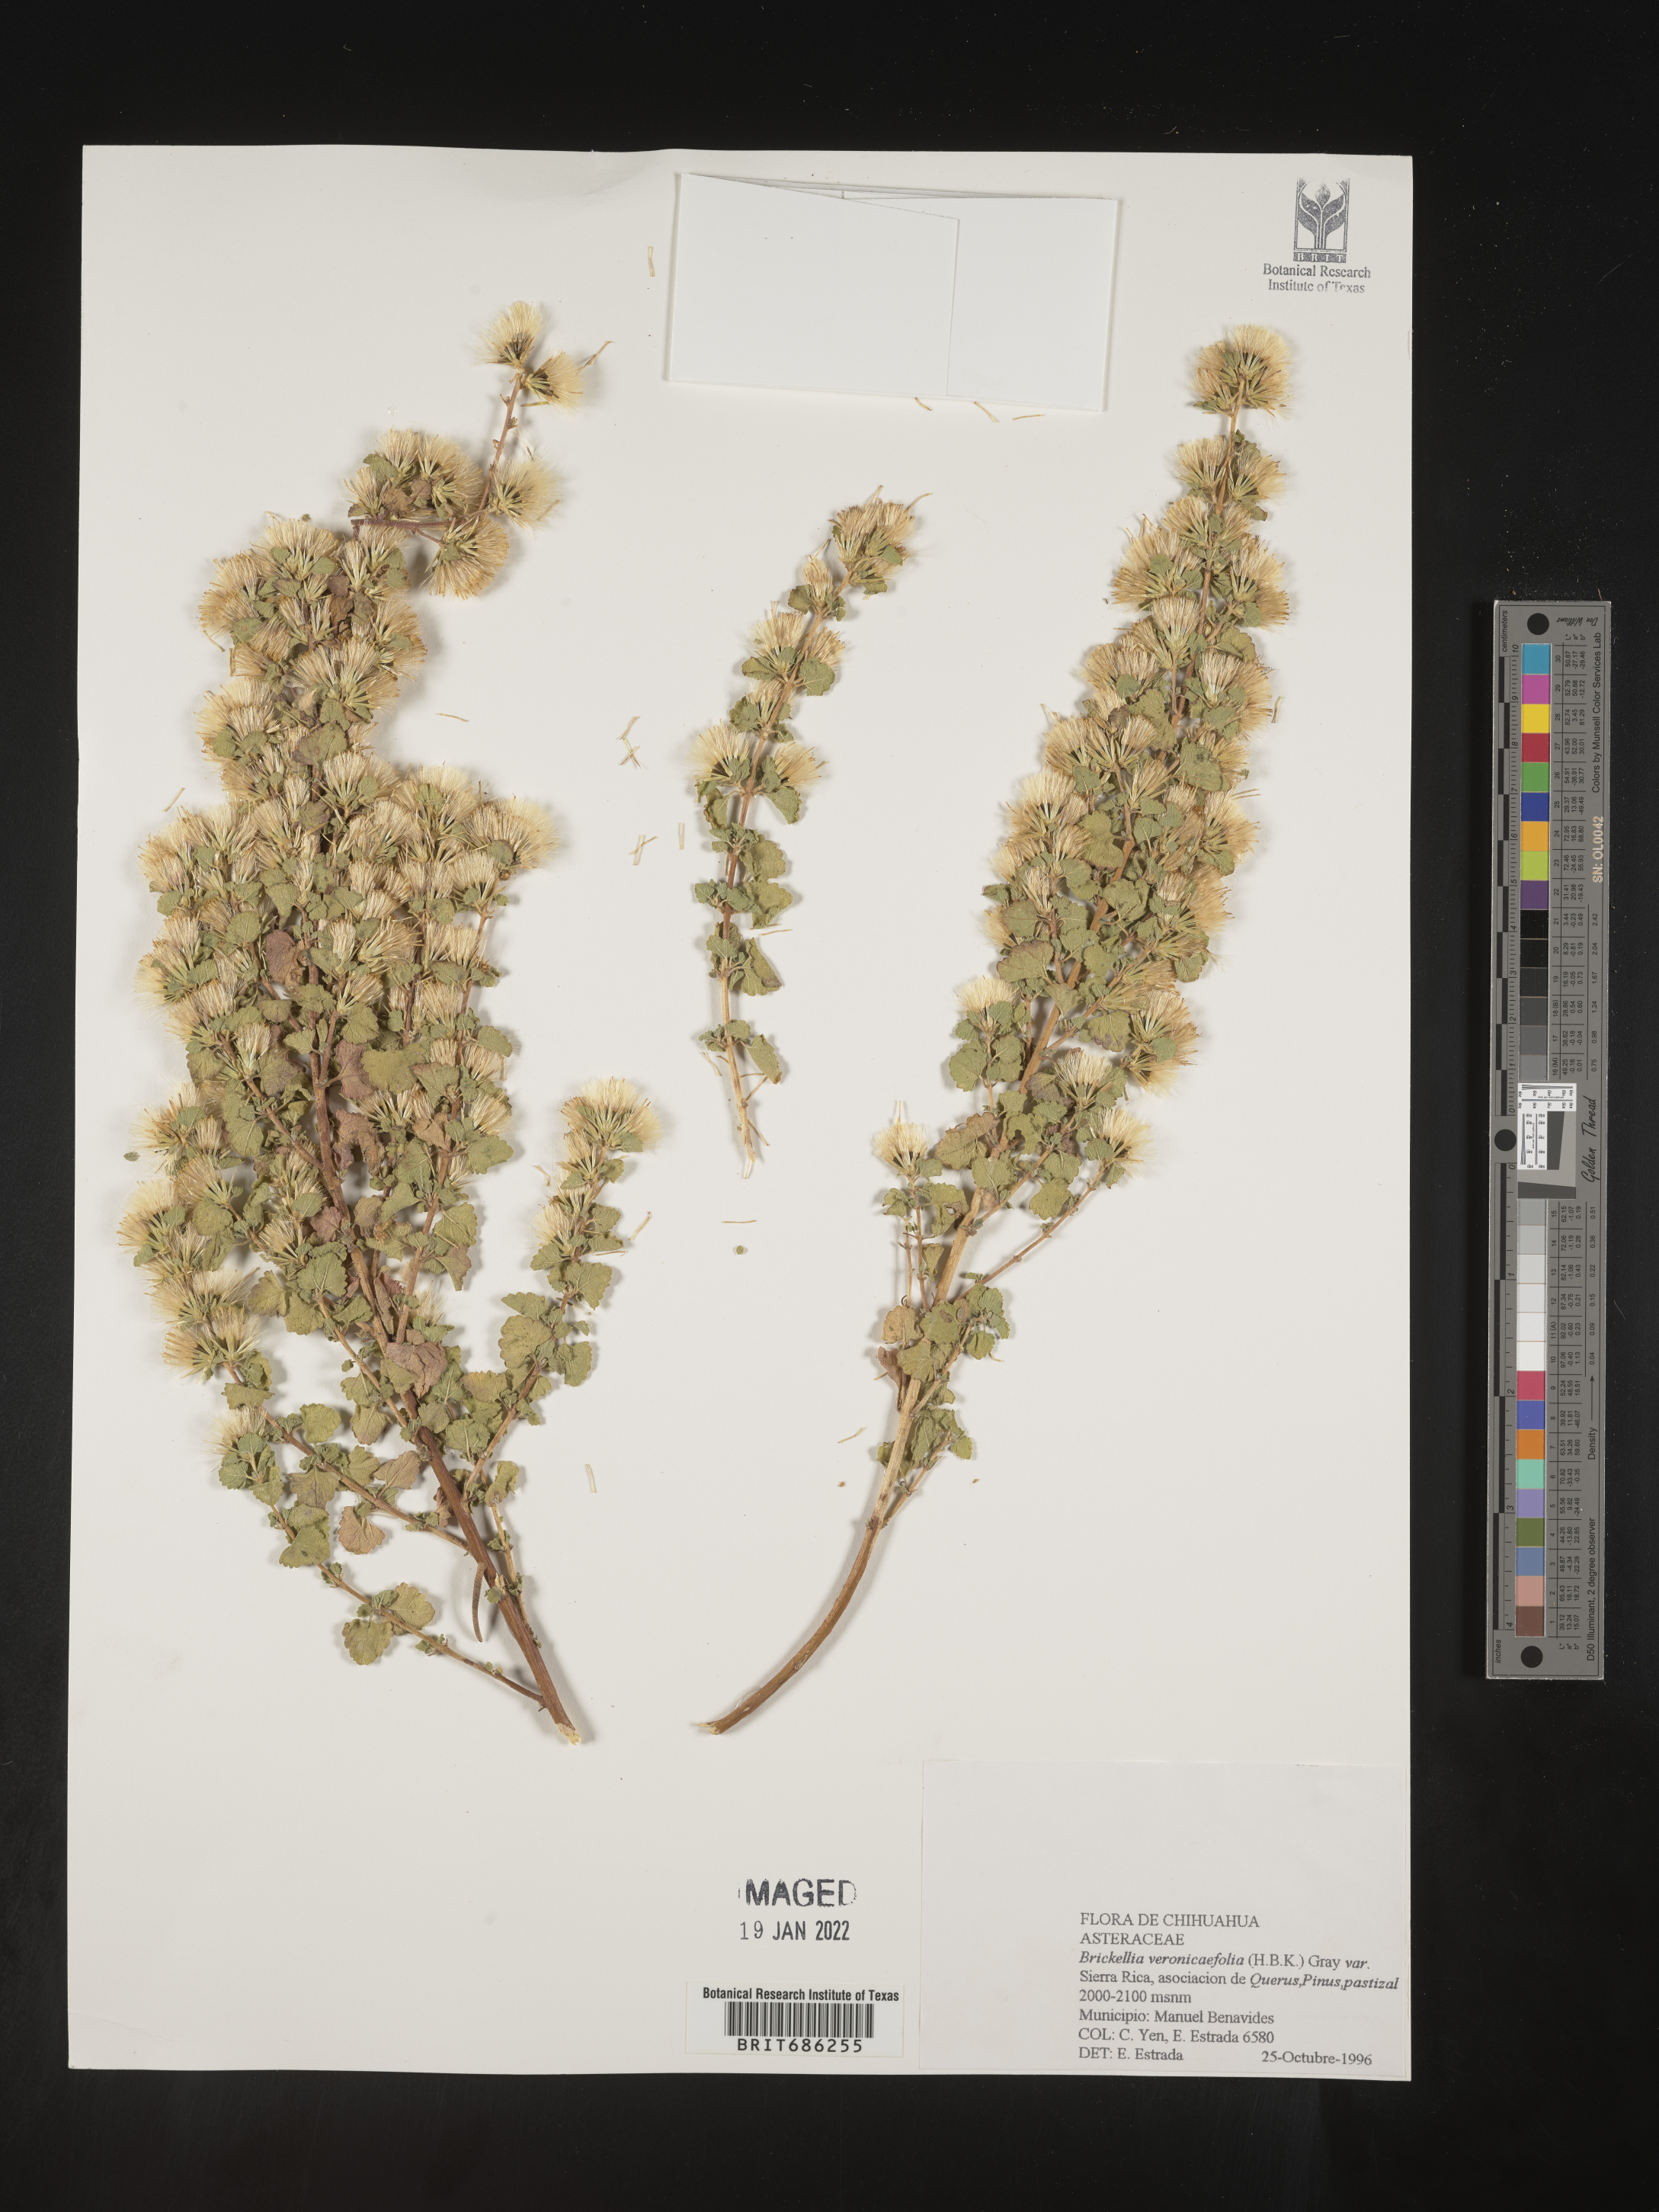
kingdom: Plantae
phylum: Tracheophyta
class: Magnoliopsida
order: Asterales
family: Asteraceae
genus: Brickellia
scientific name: Brickellia veronicifolia
